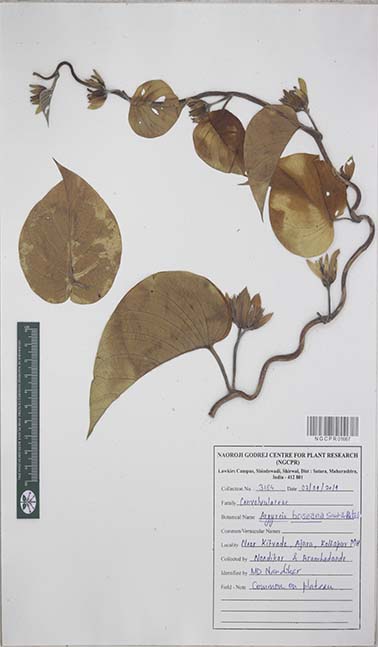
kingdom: Plantae
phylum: Tracheophyta
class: Magnoliopsida
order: Solanales
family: Convolvulaceae
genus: Argyreia
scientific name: Argyreia hookeri
